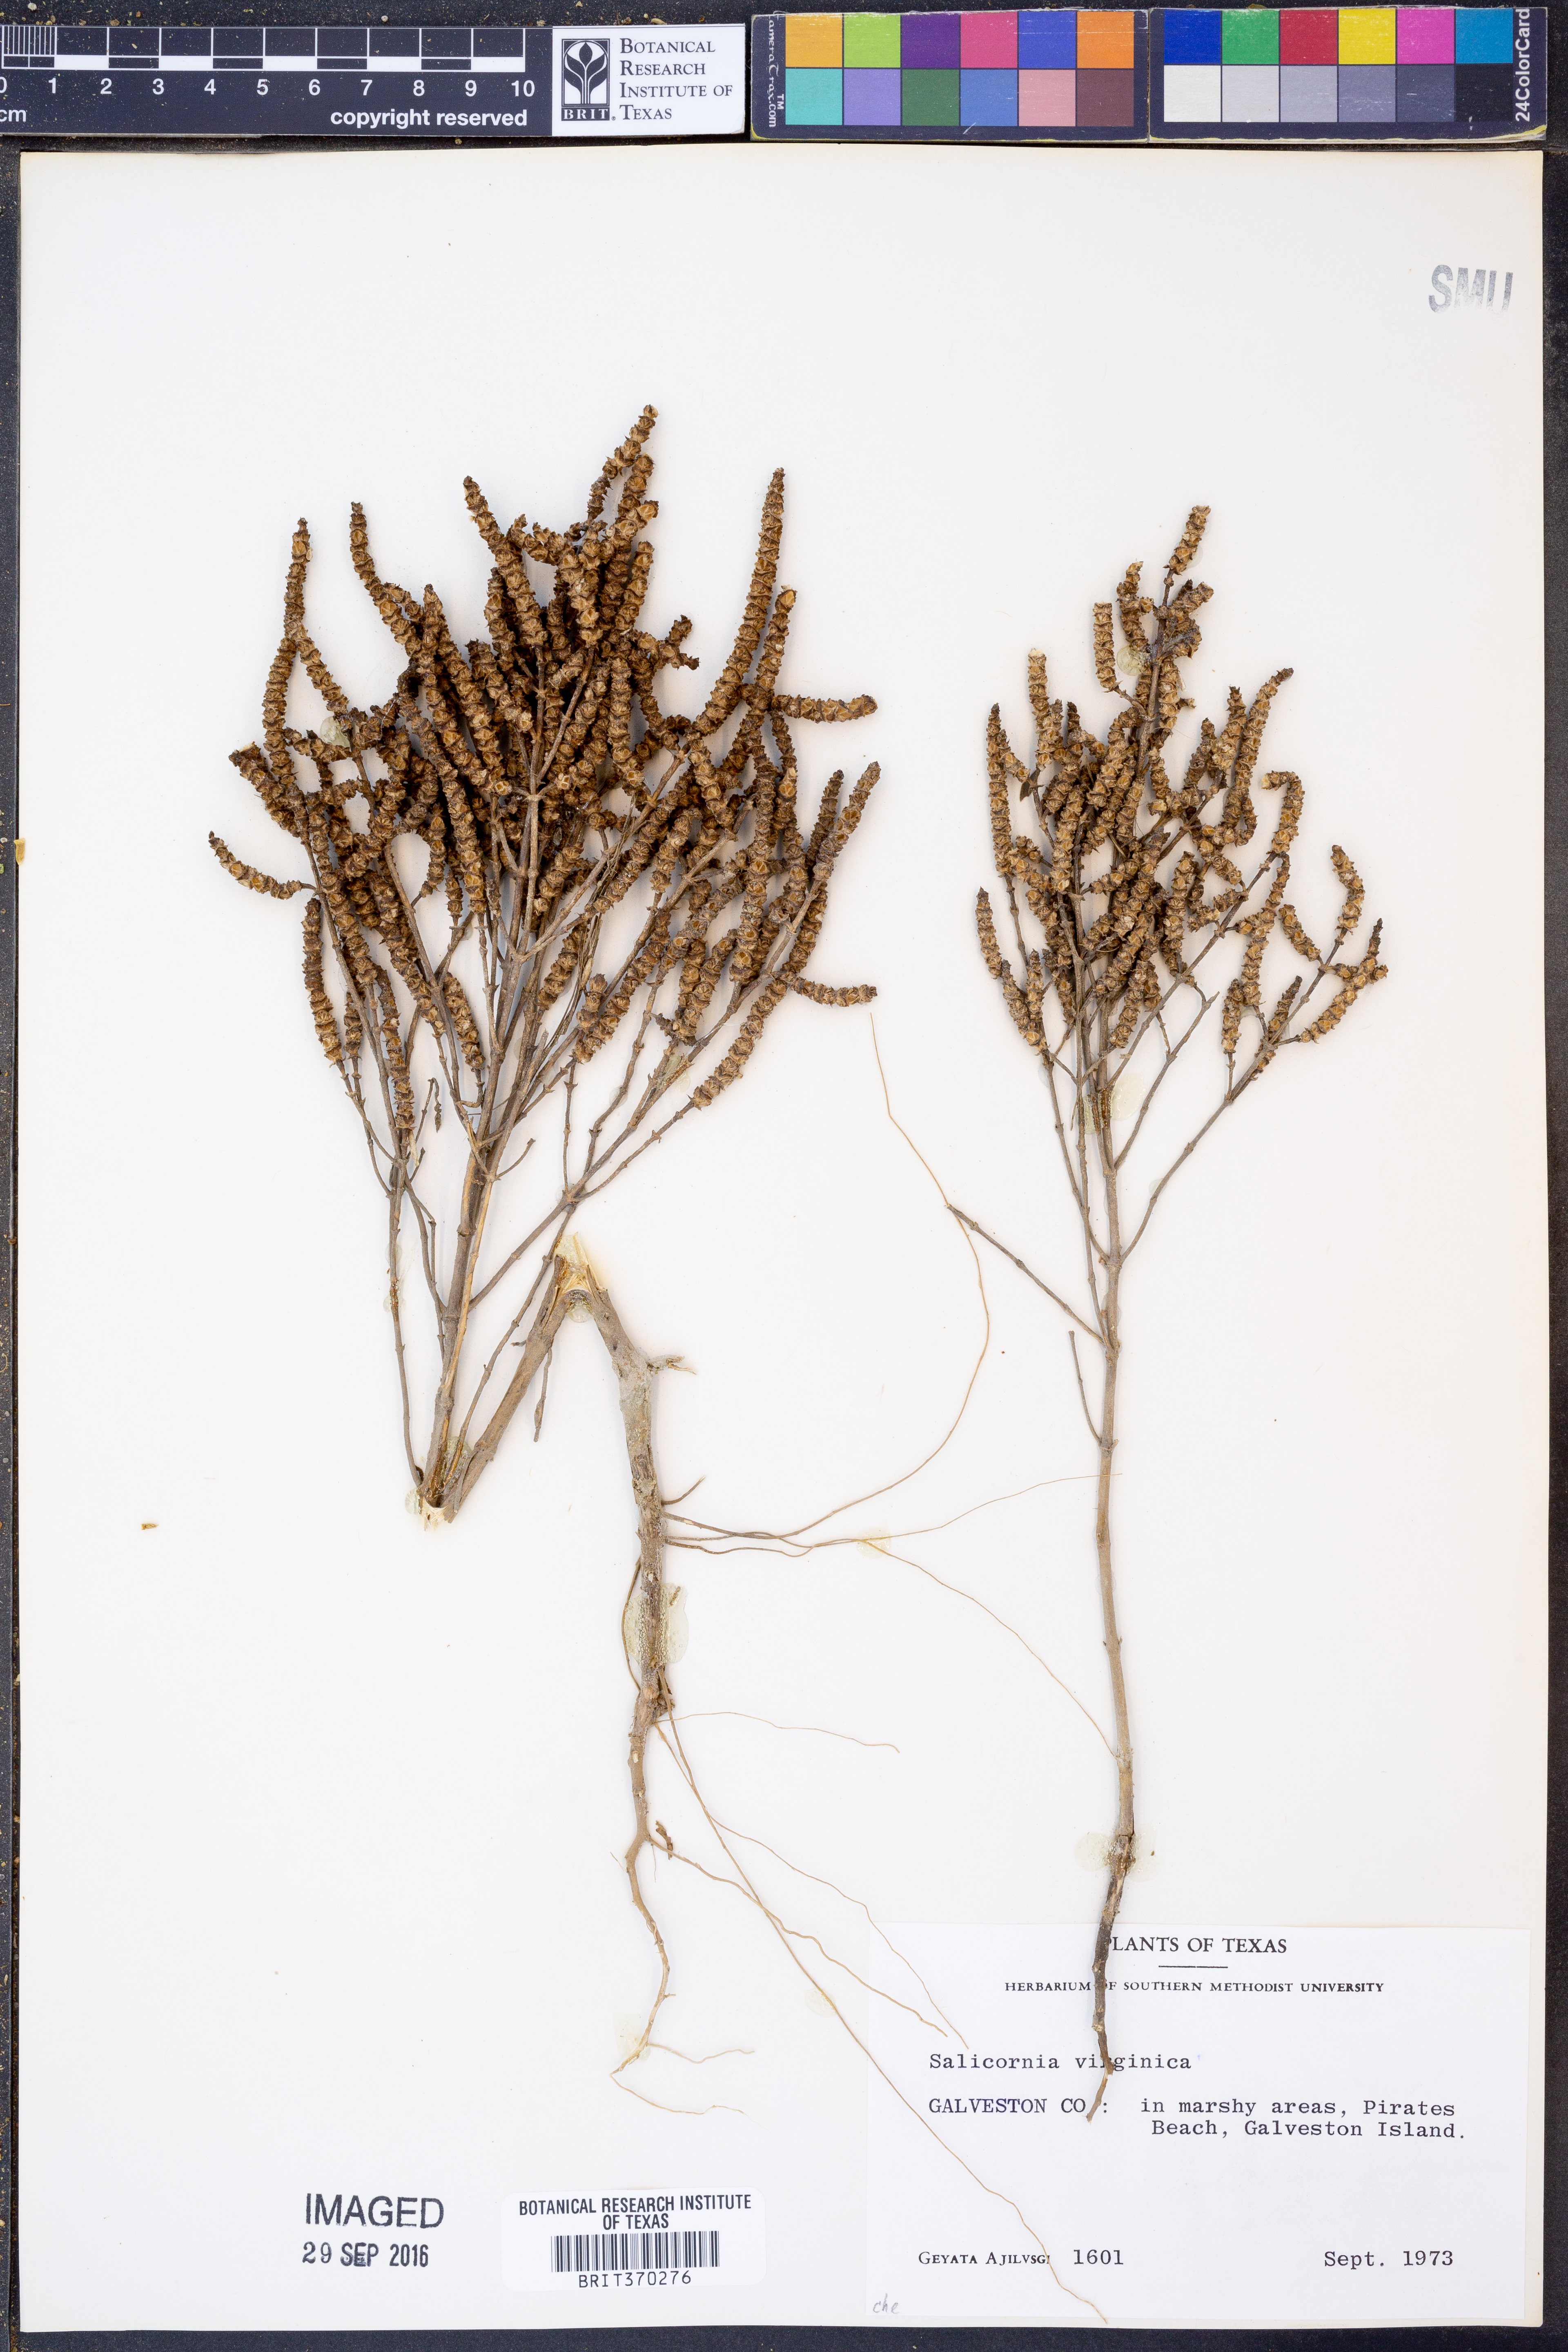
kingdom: Plantae
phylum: Tracheophyta
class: Magnoliopsida
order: Caryophyllales
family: Amaranthaceae
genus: Salicornia
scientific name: Salicornia virginica
